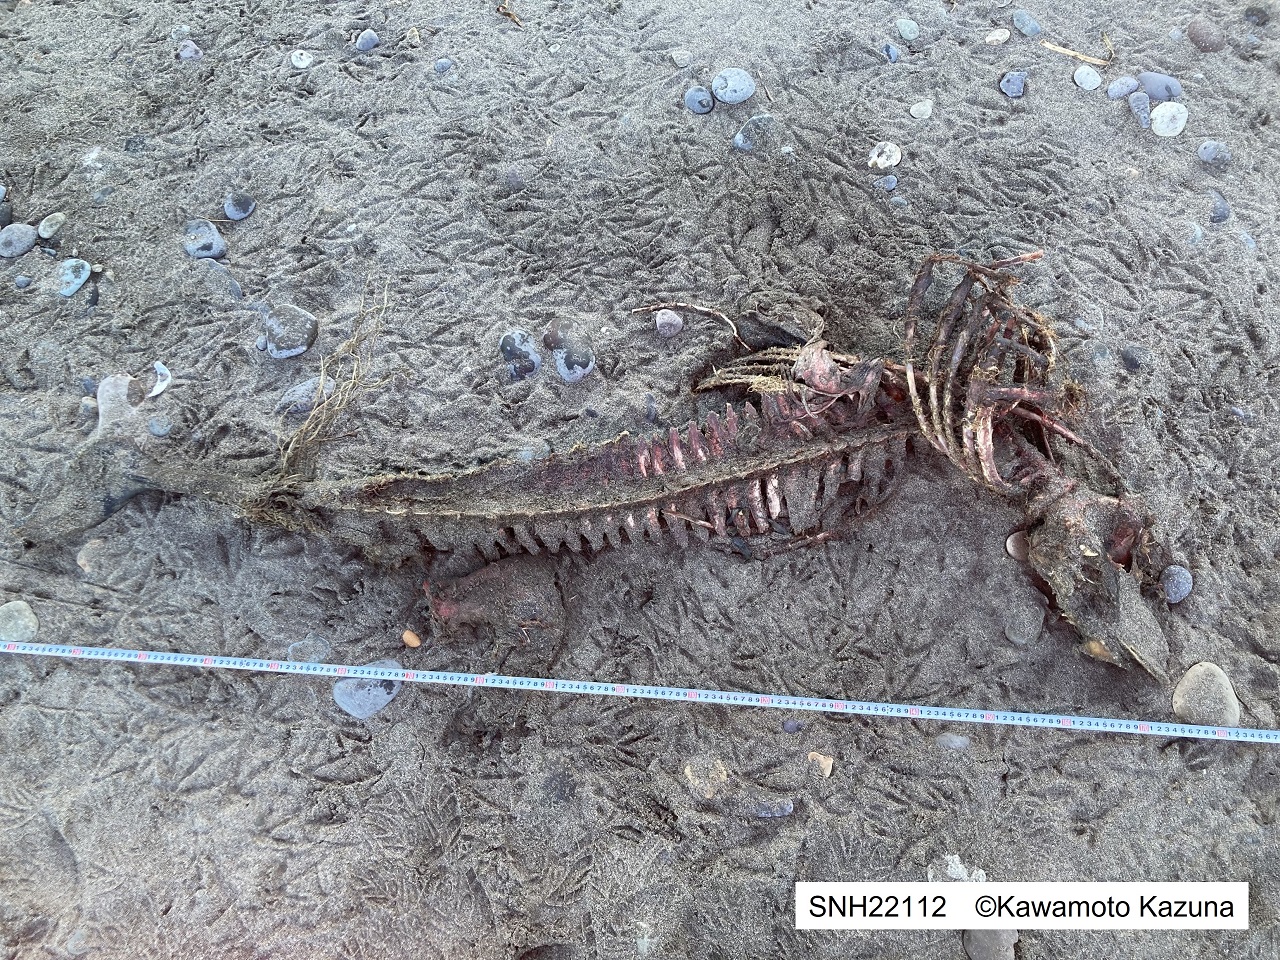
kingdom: Animalia
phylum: Chordata
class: Mammalia
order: Cetacea
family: Phocoenidae
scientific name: Phocoenidae
